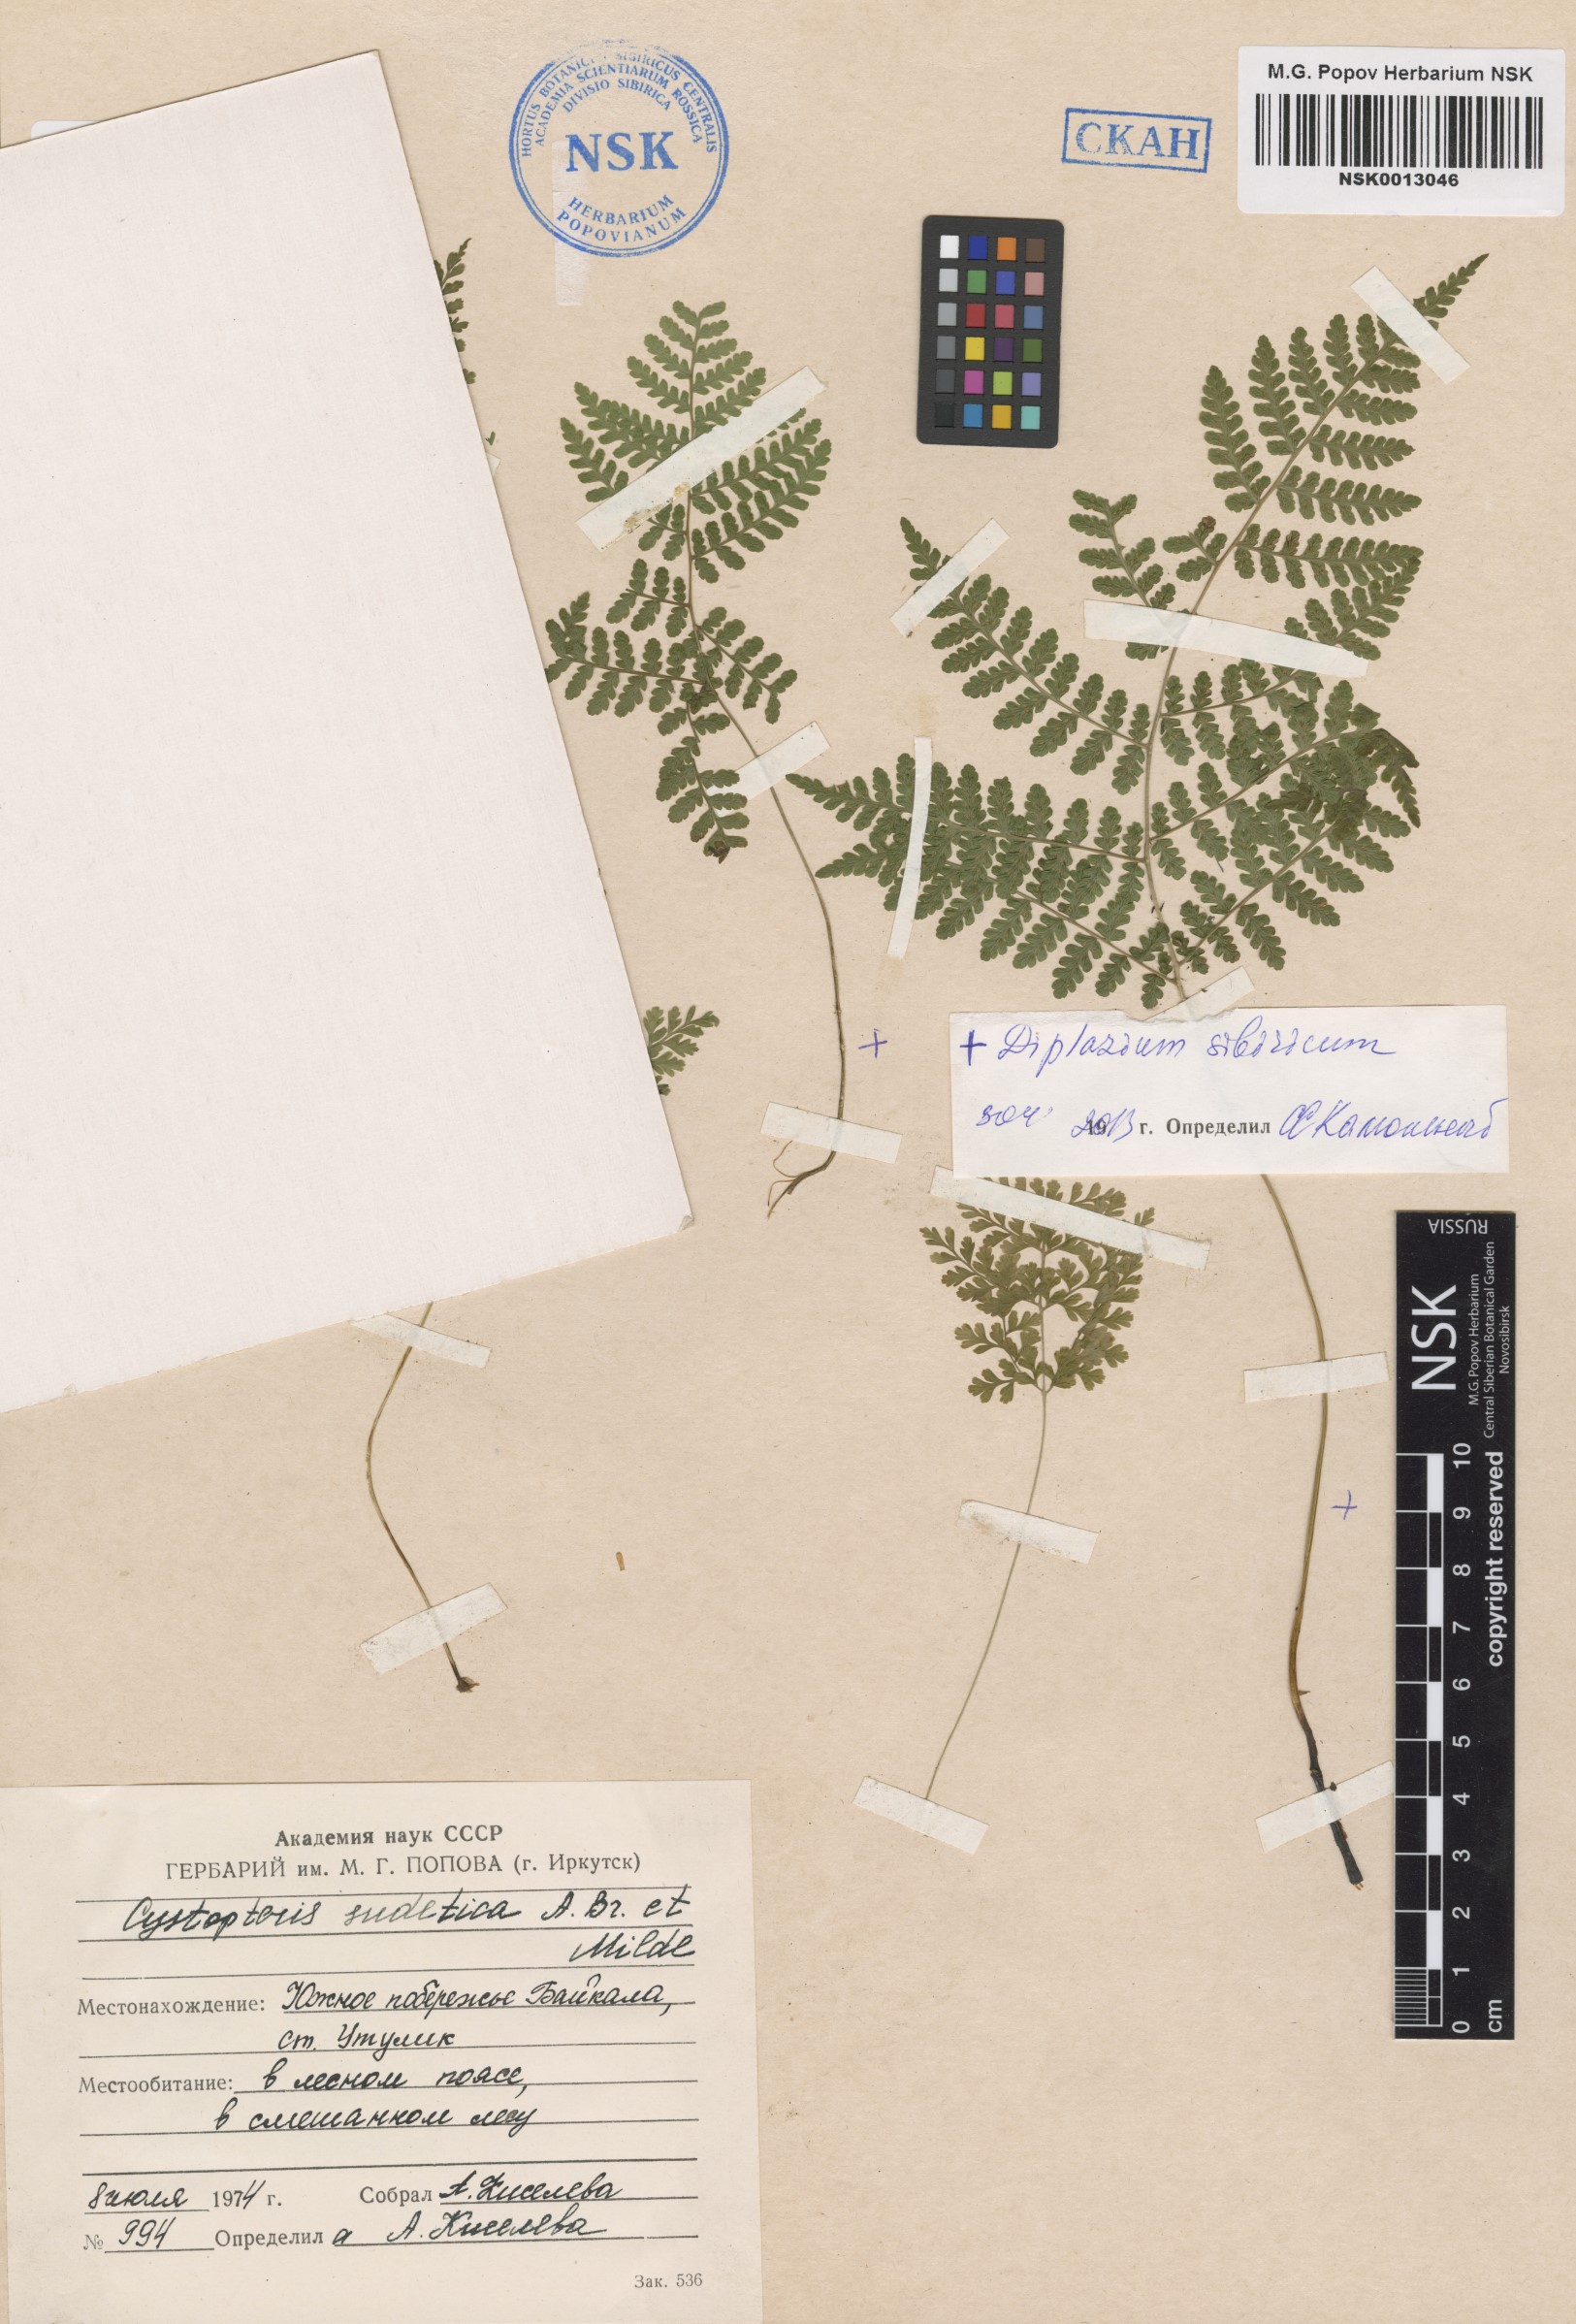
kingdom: Plantae
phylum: Tracheophyta
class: Polypodiopsida
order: Polypodiales
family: Athyriaceae
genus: Diplazium
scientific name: Diplazium sibiricum
